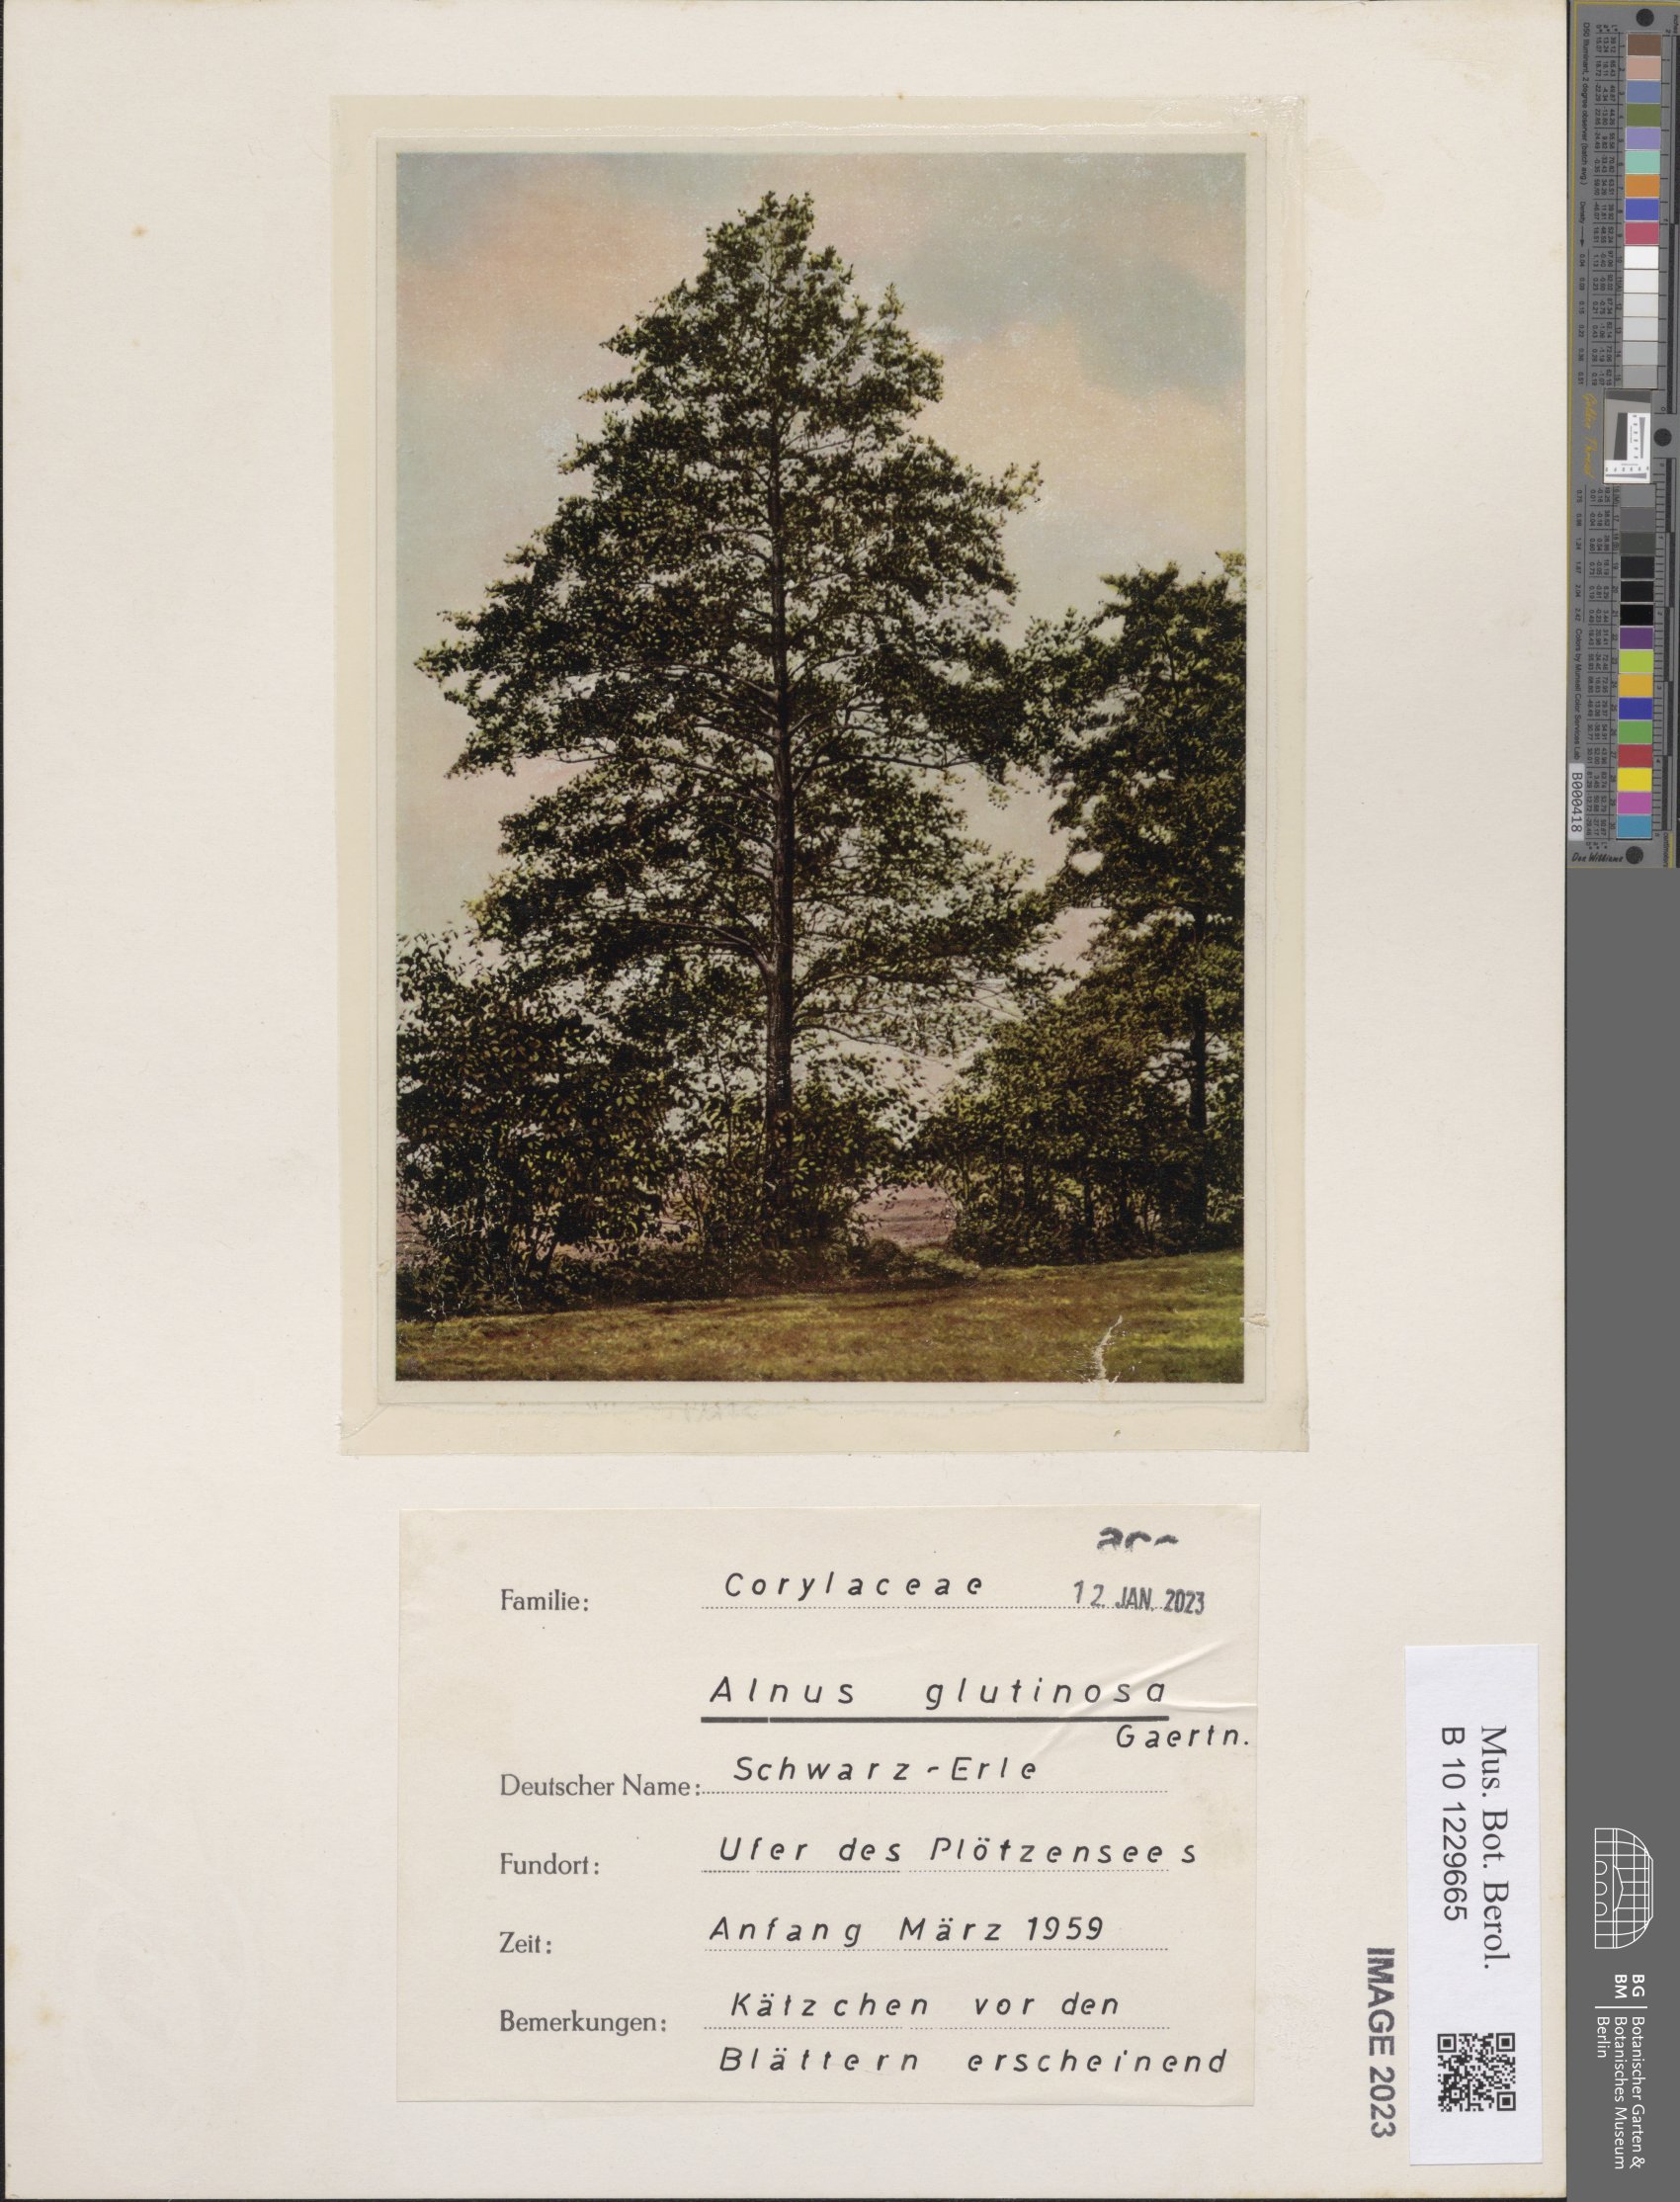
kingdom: Plantae
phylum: Tracheophyta
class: Magnoliopsida
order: Fagales
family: Betulaceae
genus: Alnus
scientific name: Alnus glutinosa
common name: Black alder
